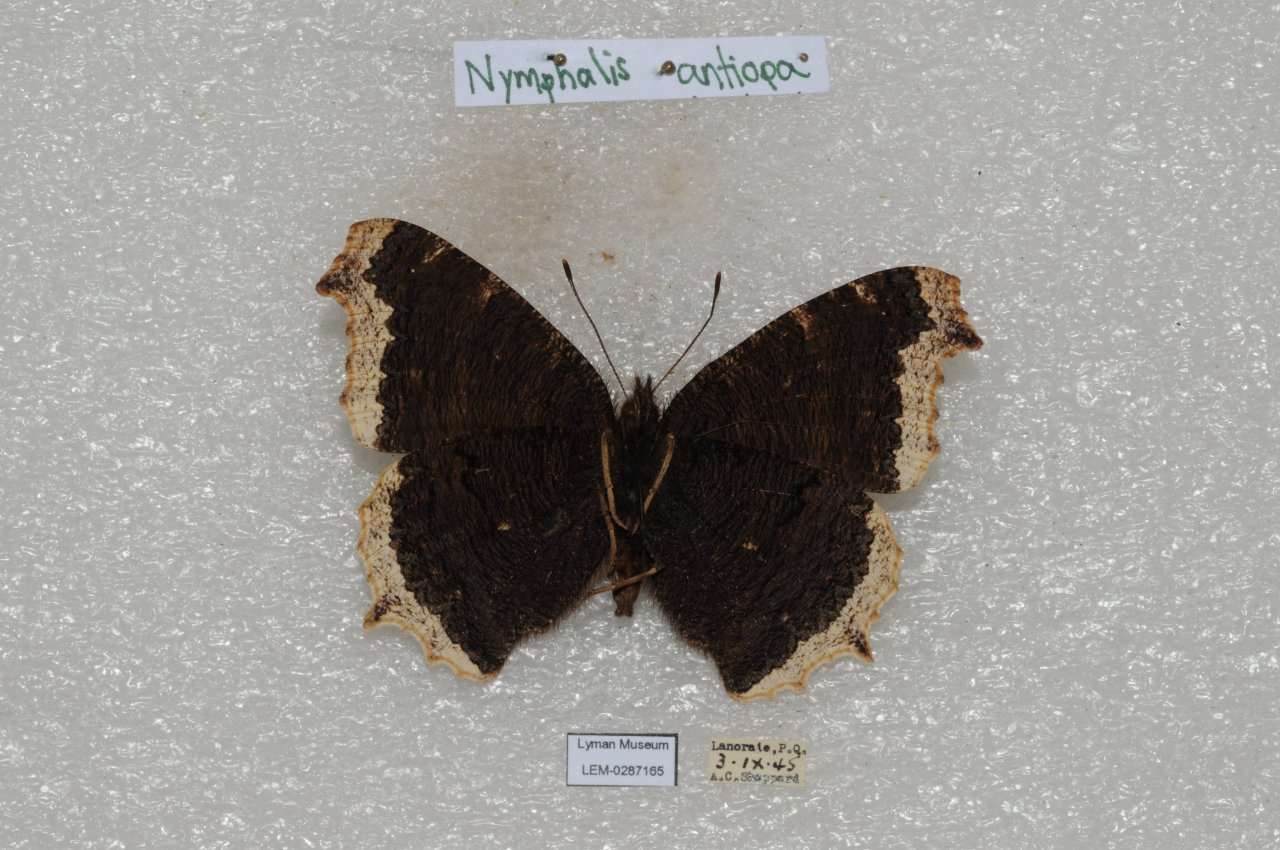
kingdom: Animalia
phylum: Arthropoda
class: Insecta
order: Lepidoptera
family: Nymphalidae
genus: Nymphalis
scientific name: Nymphalis antiopa
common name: Mourning Cloak
